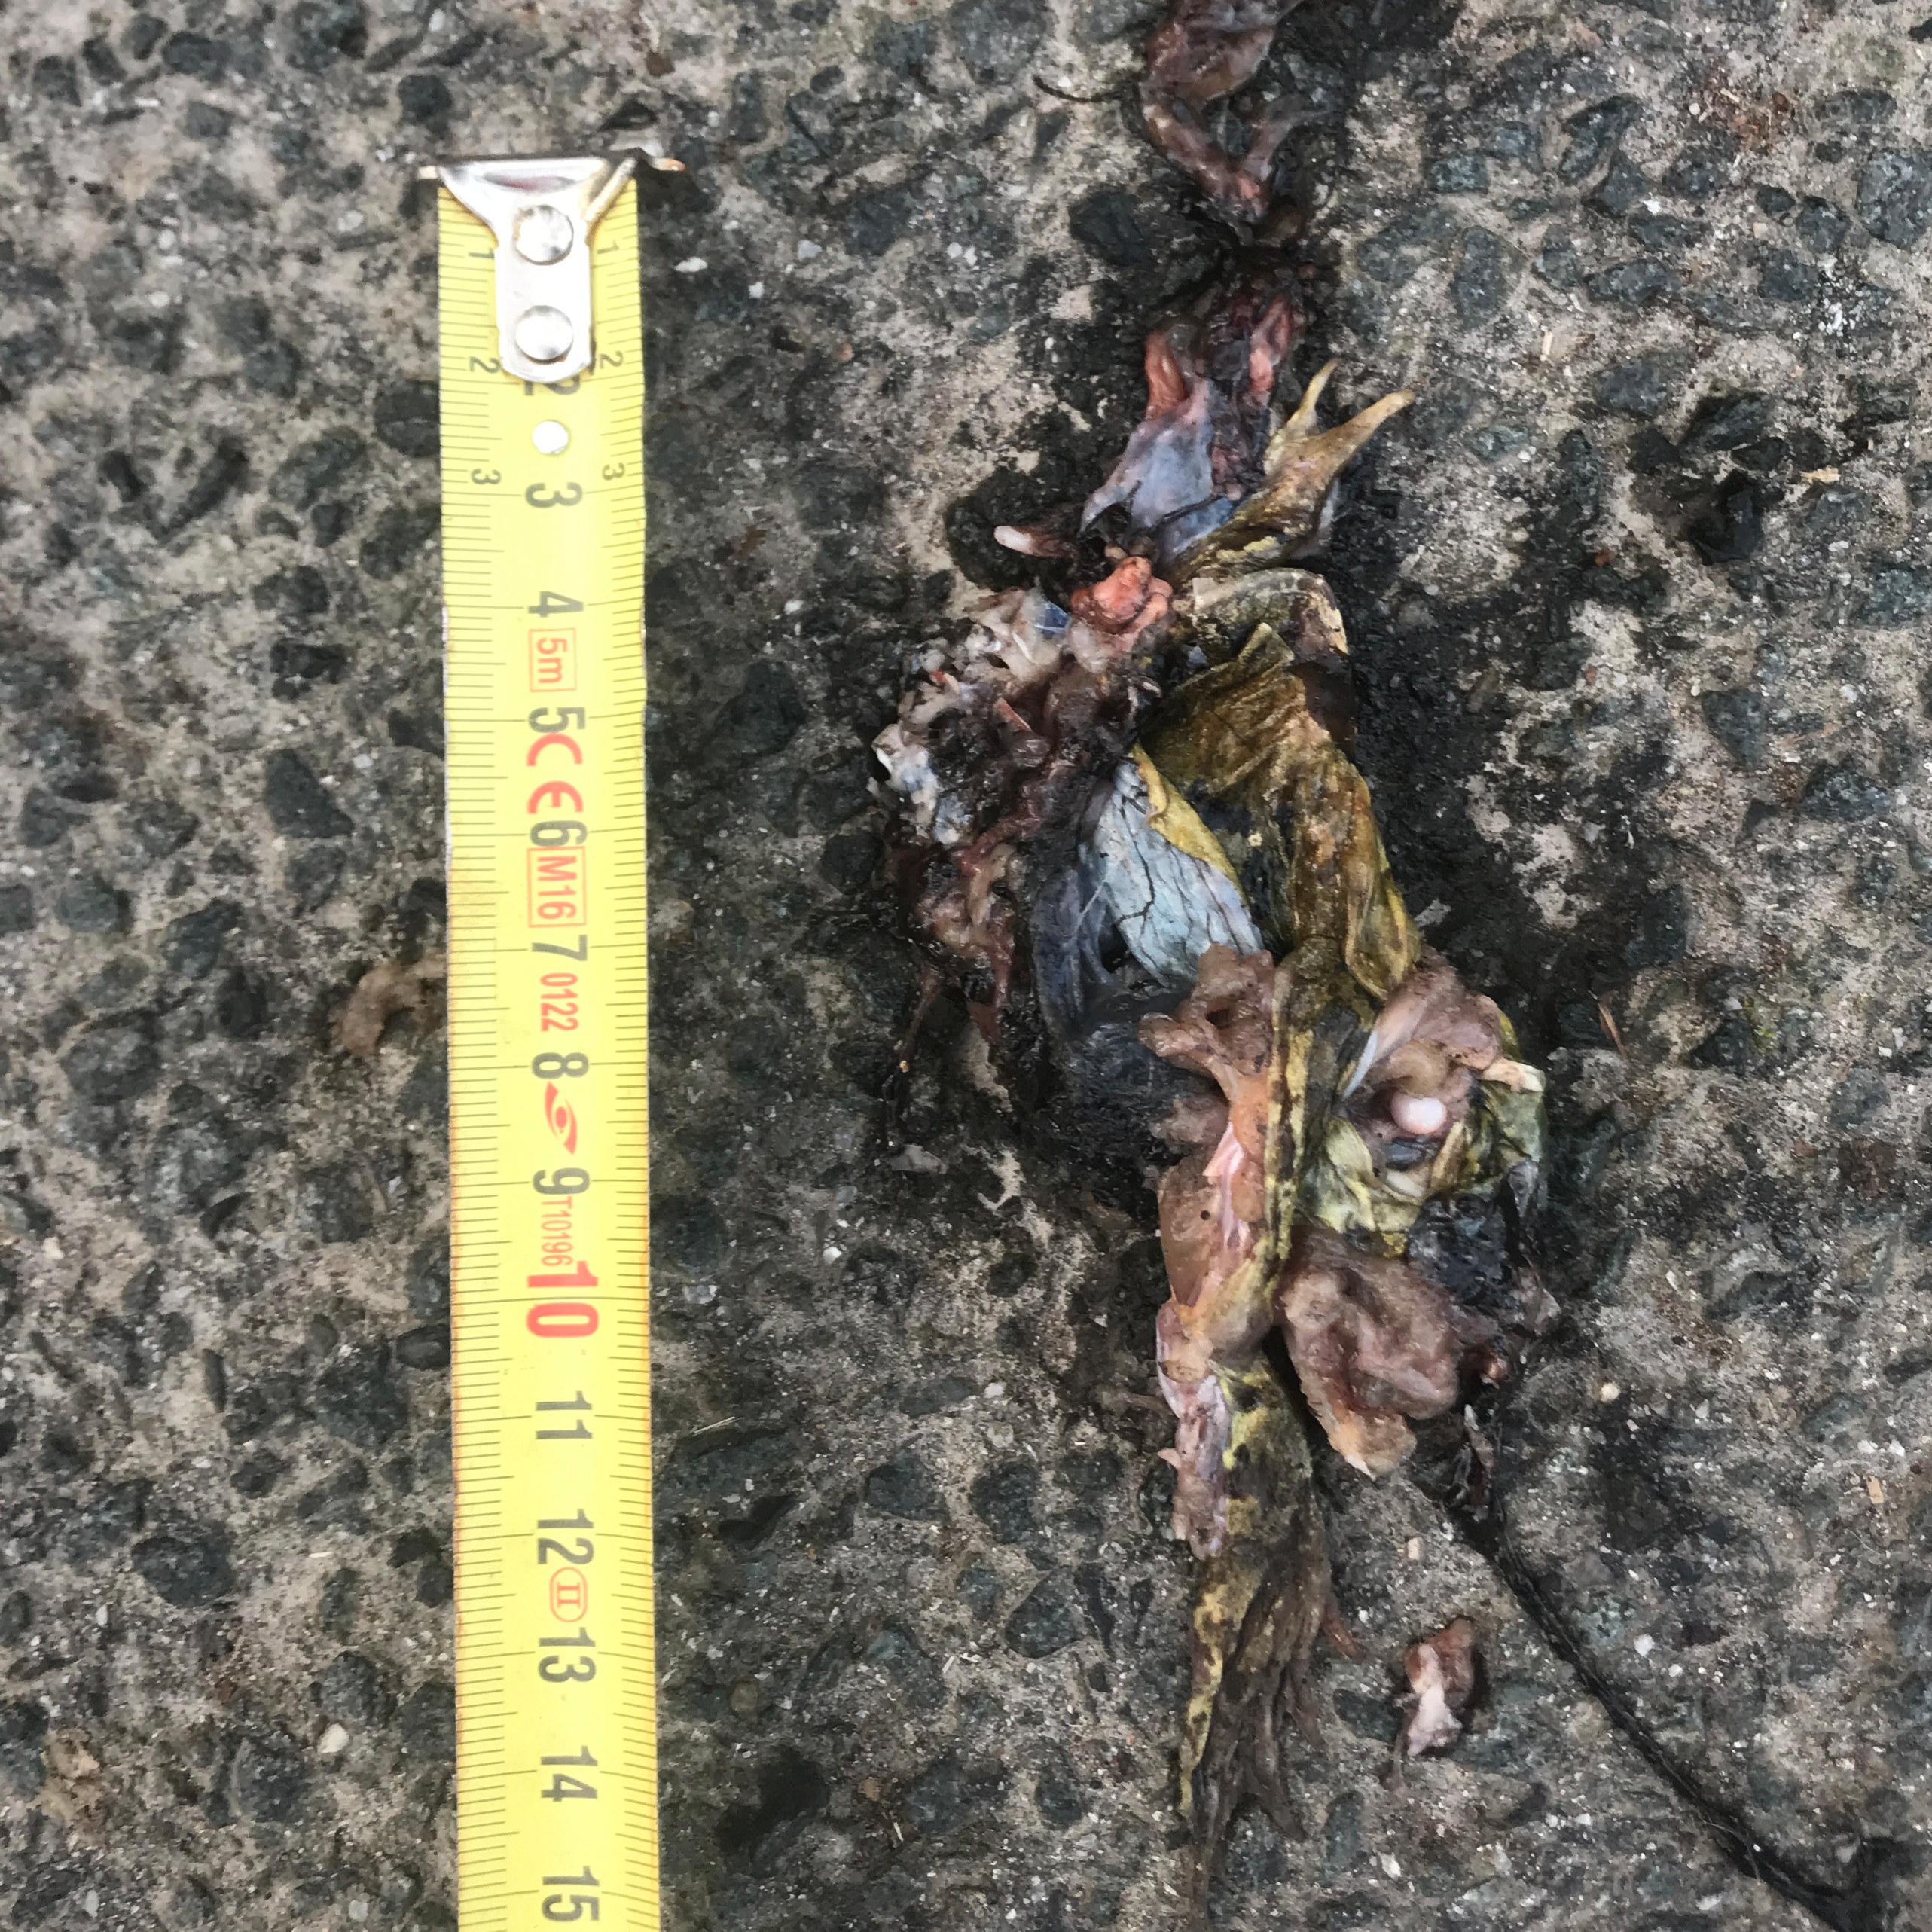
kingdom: Animalia
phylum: Chordata
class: Amphibia
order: Anura
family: Bufonidae
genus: Bufo
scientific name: Bufo bufo
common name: Common toad
